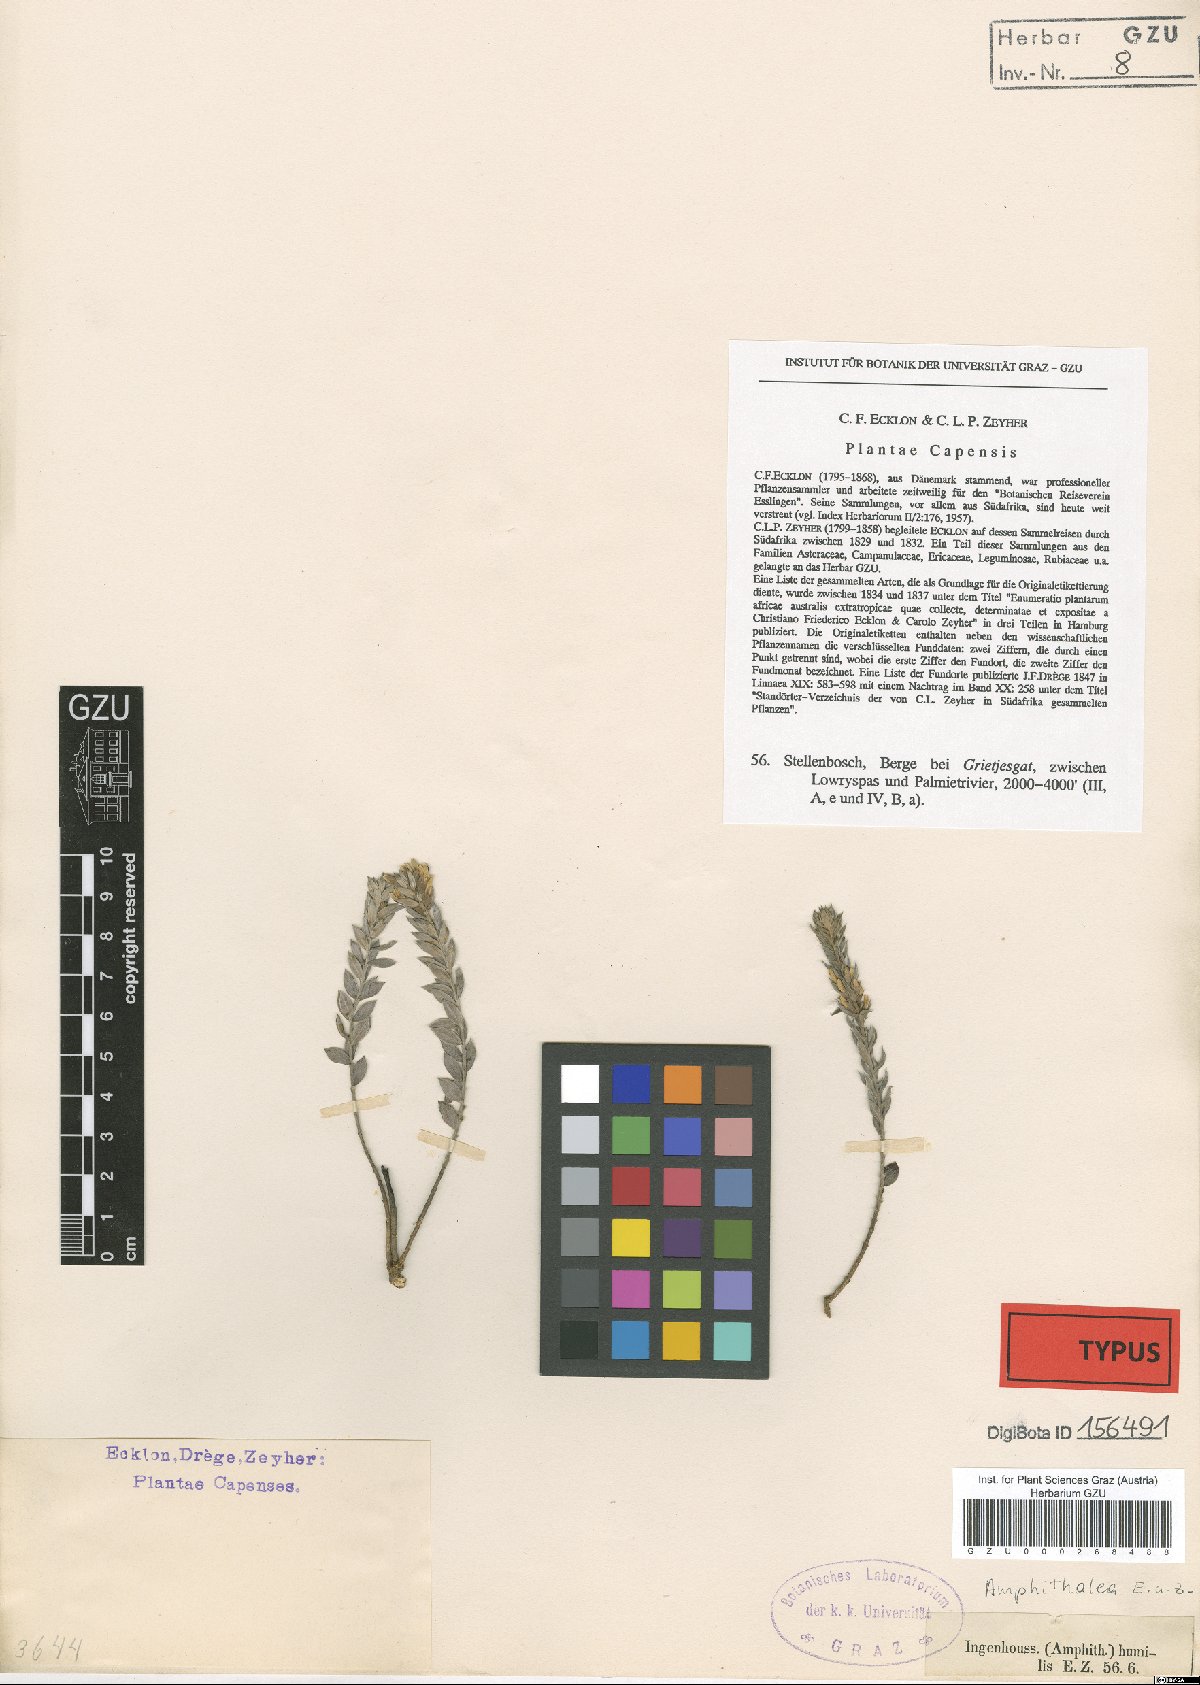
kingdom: Plantae
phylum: Tracheophyta
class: Magnoliopsida
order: Fabales
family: Fabaceae
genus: Amphithalea
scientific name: Amphithalea intermedia
